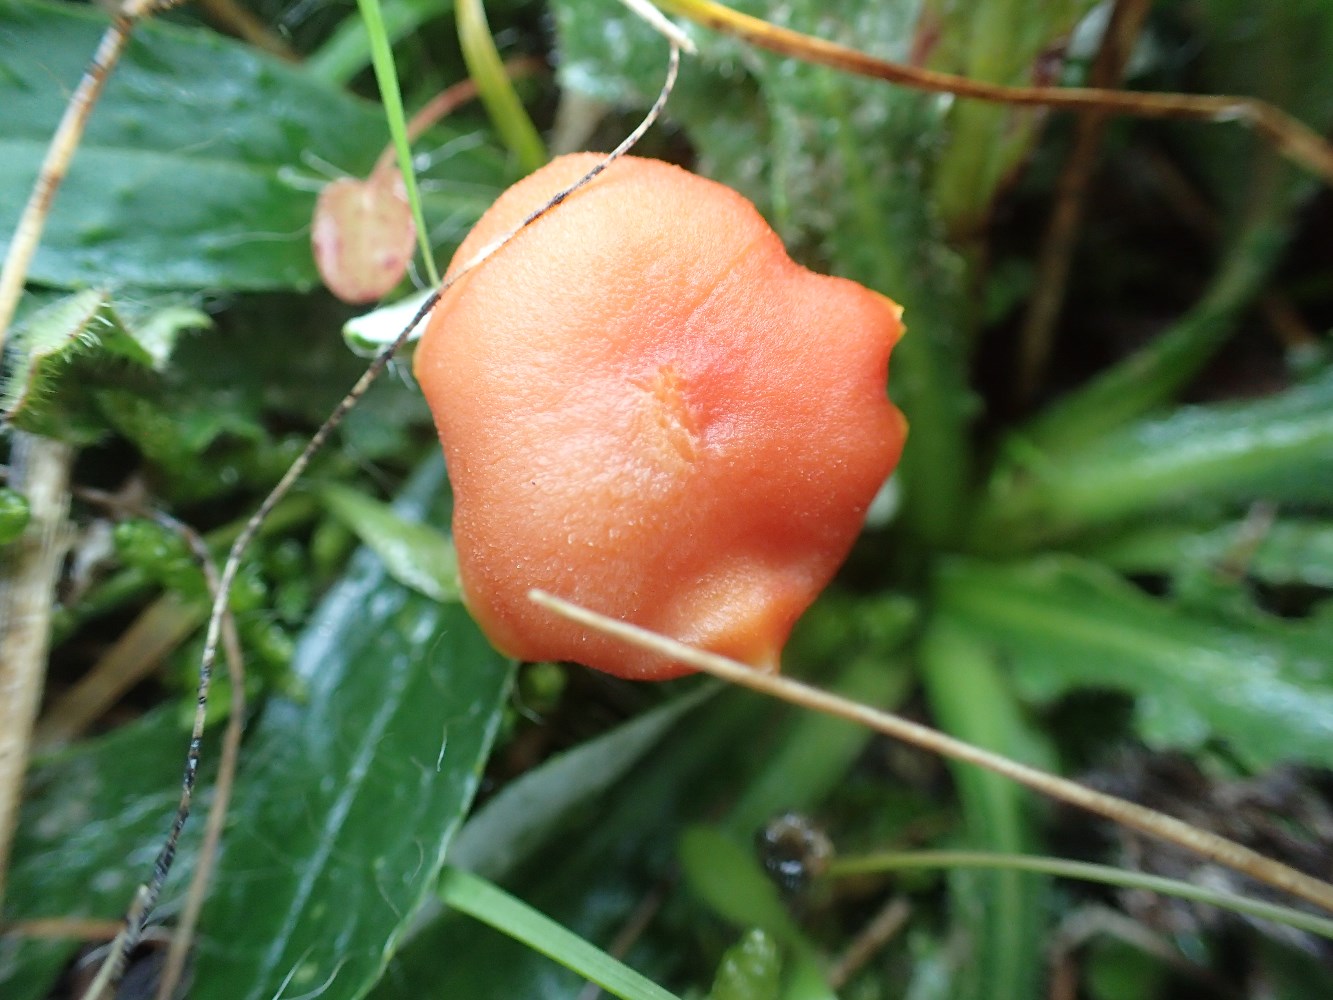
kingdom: Fungi
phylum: Basidiomycota
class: Agaricomycetes
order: Agaricales
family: Hygrophoraceae
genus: Hygrocybe
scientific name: Hygrocybe miniata
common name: mønje-vokshat
